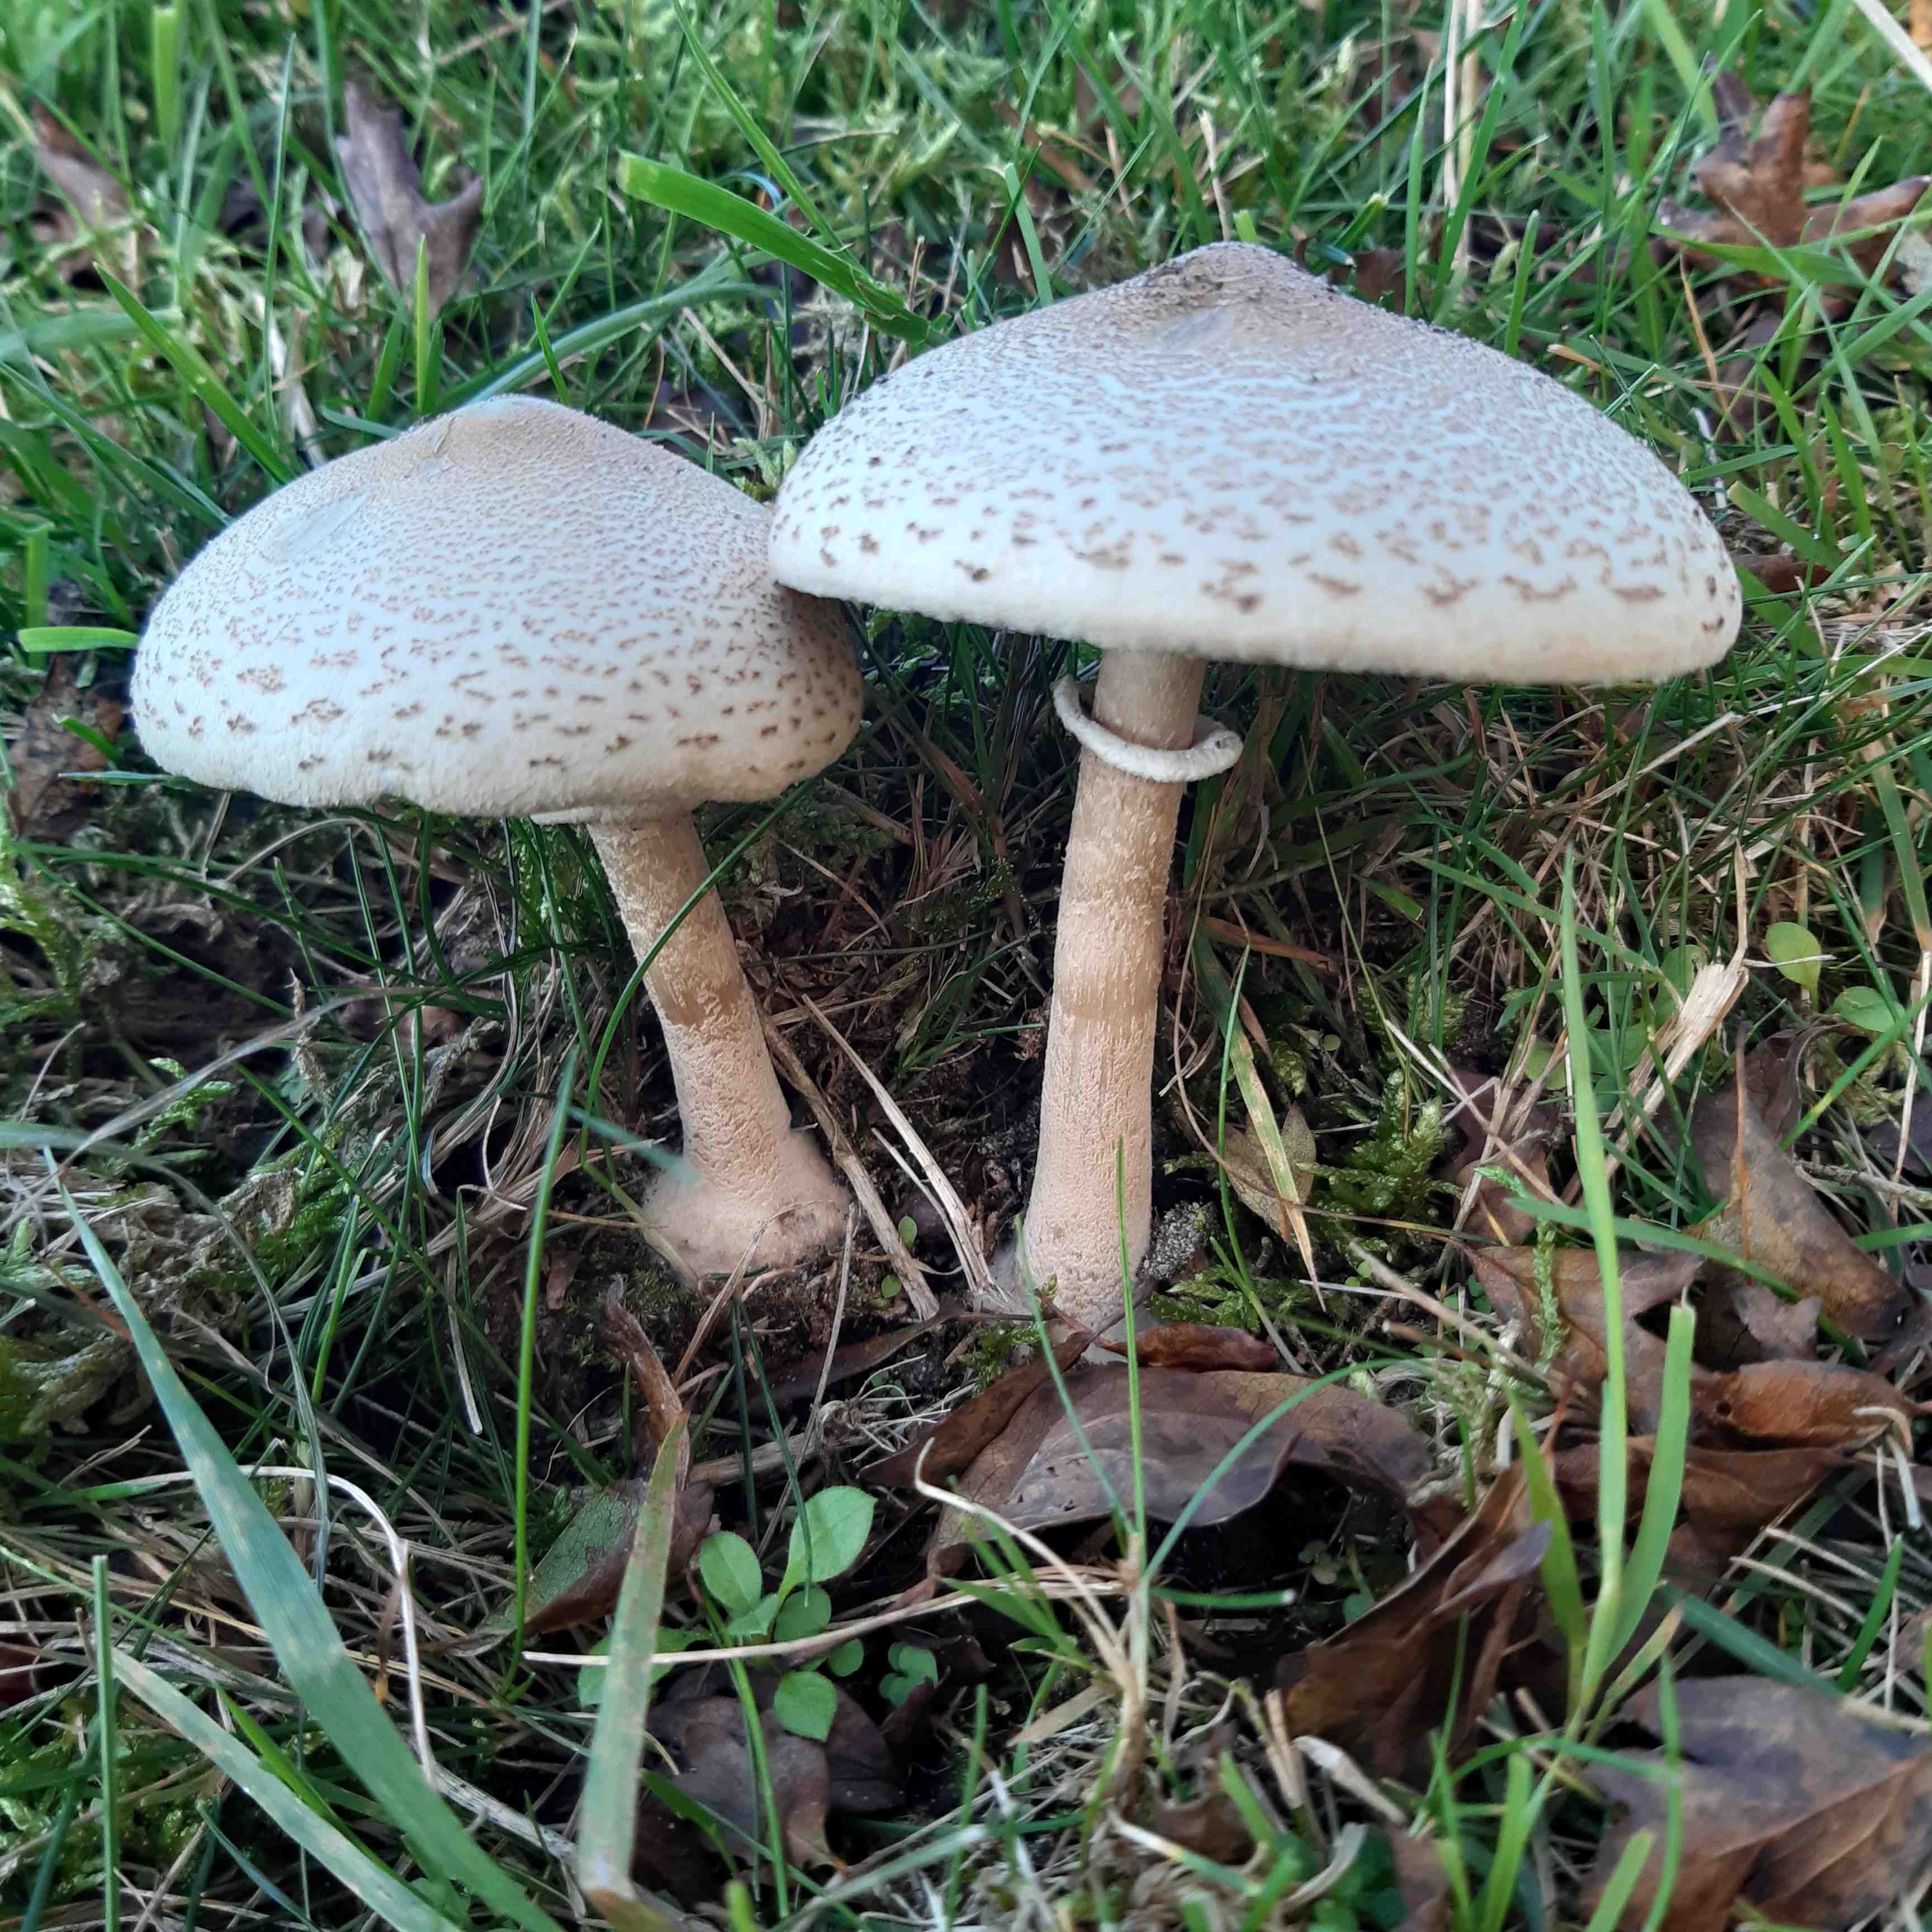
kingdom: Fungi
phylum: Basidiomycota
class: Agaricomycetes
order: Agaricales
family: Agaricaceae
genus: Macrolepiota
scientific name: Macrolepiota mastoidea
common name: puklet kæmpeparasolhat
